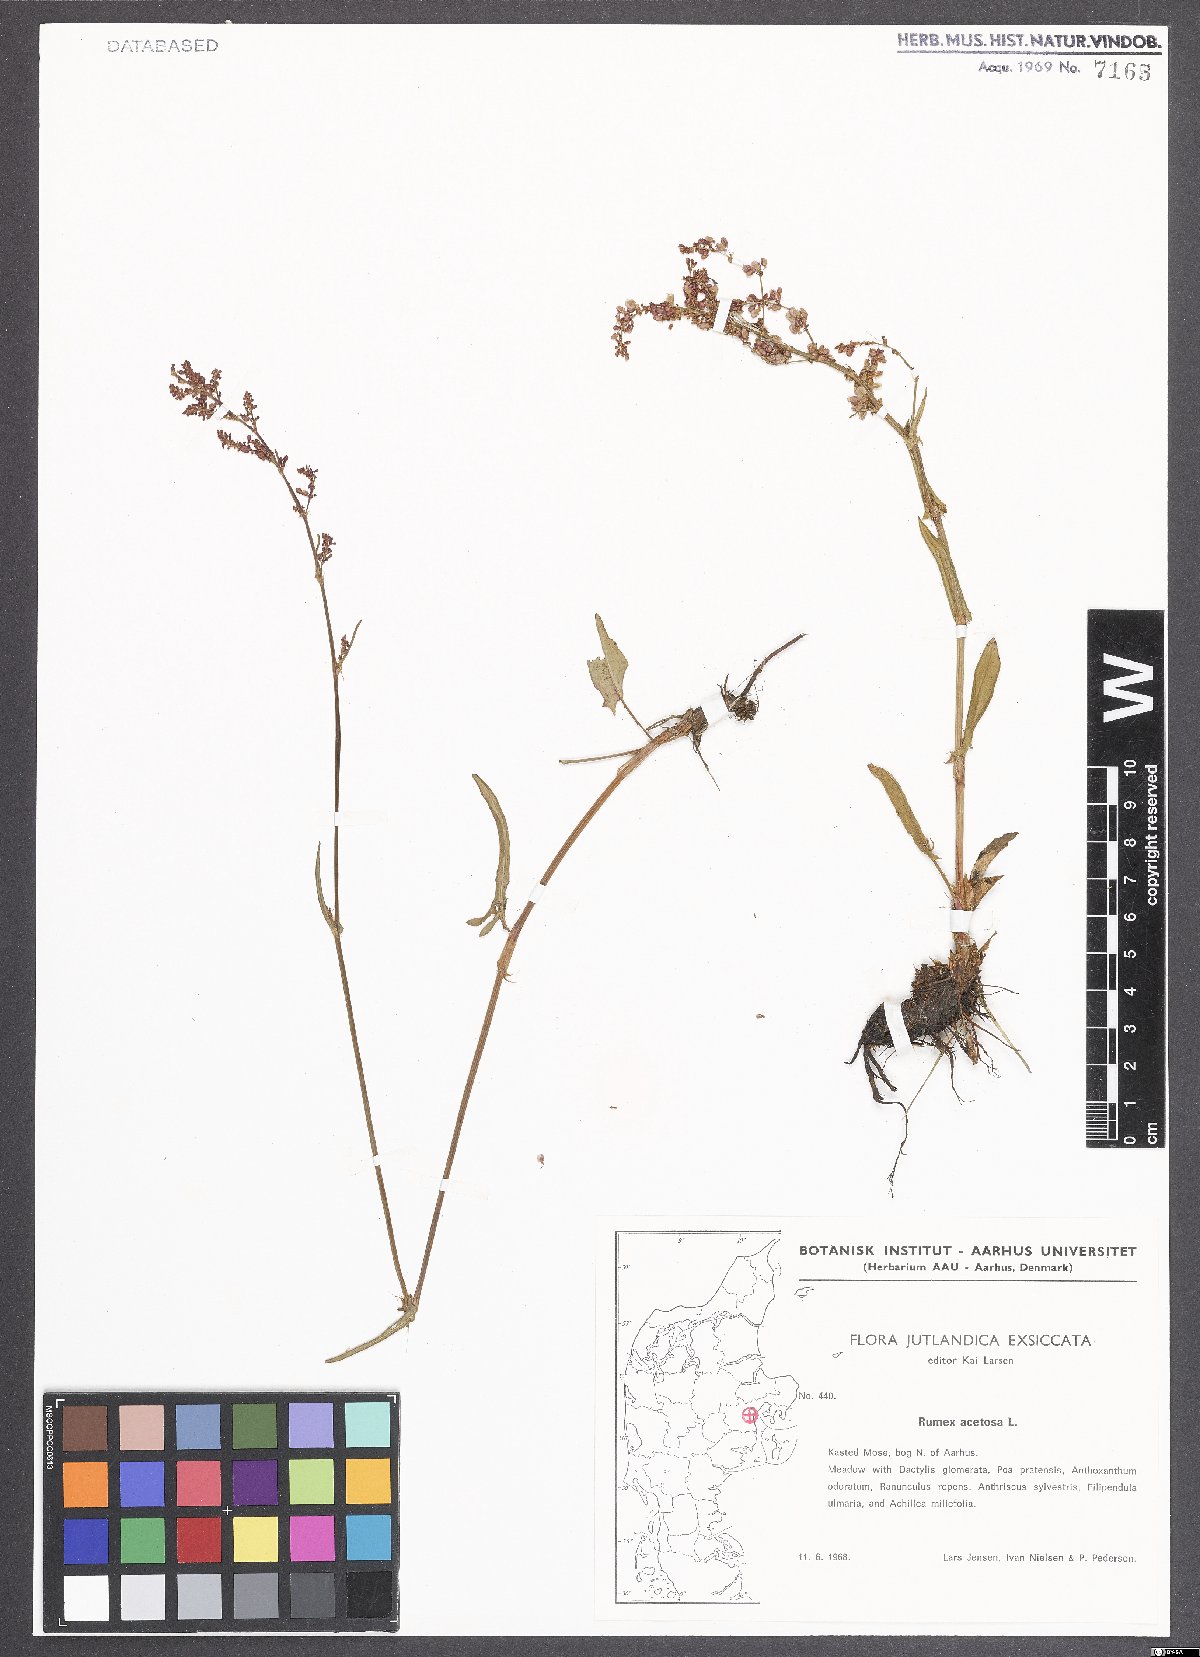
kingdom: Plantae
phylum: Tracheophyta
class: Magnoliopsida
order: Caryophyllales
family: Polygonaceae
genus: Rumex
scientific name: Rumex acetosa
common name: Garden sorrel
